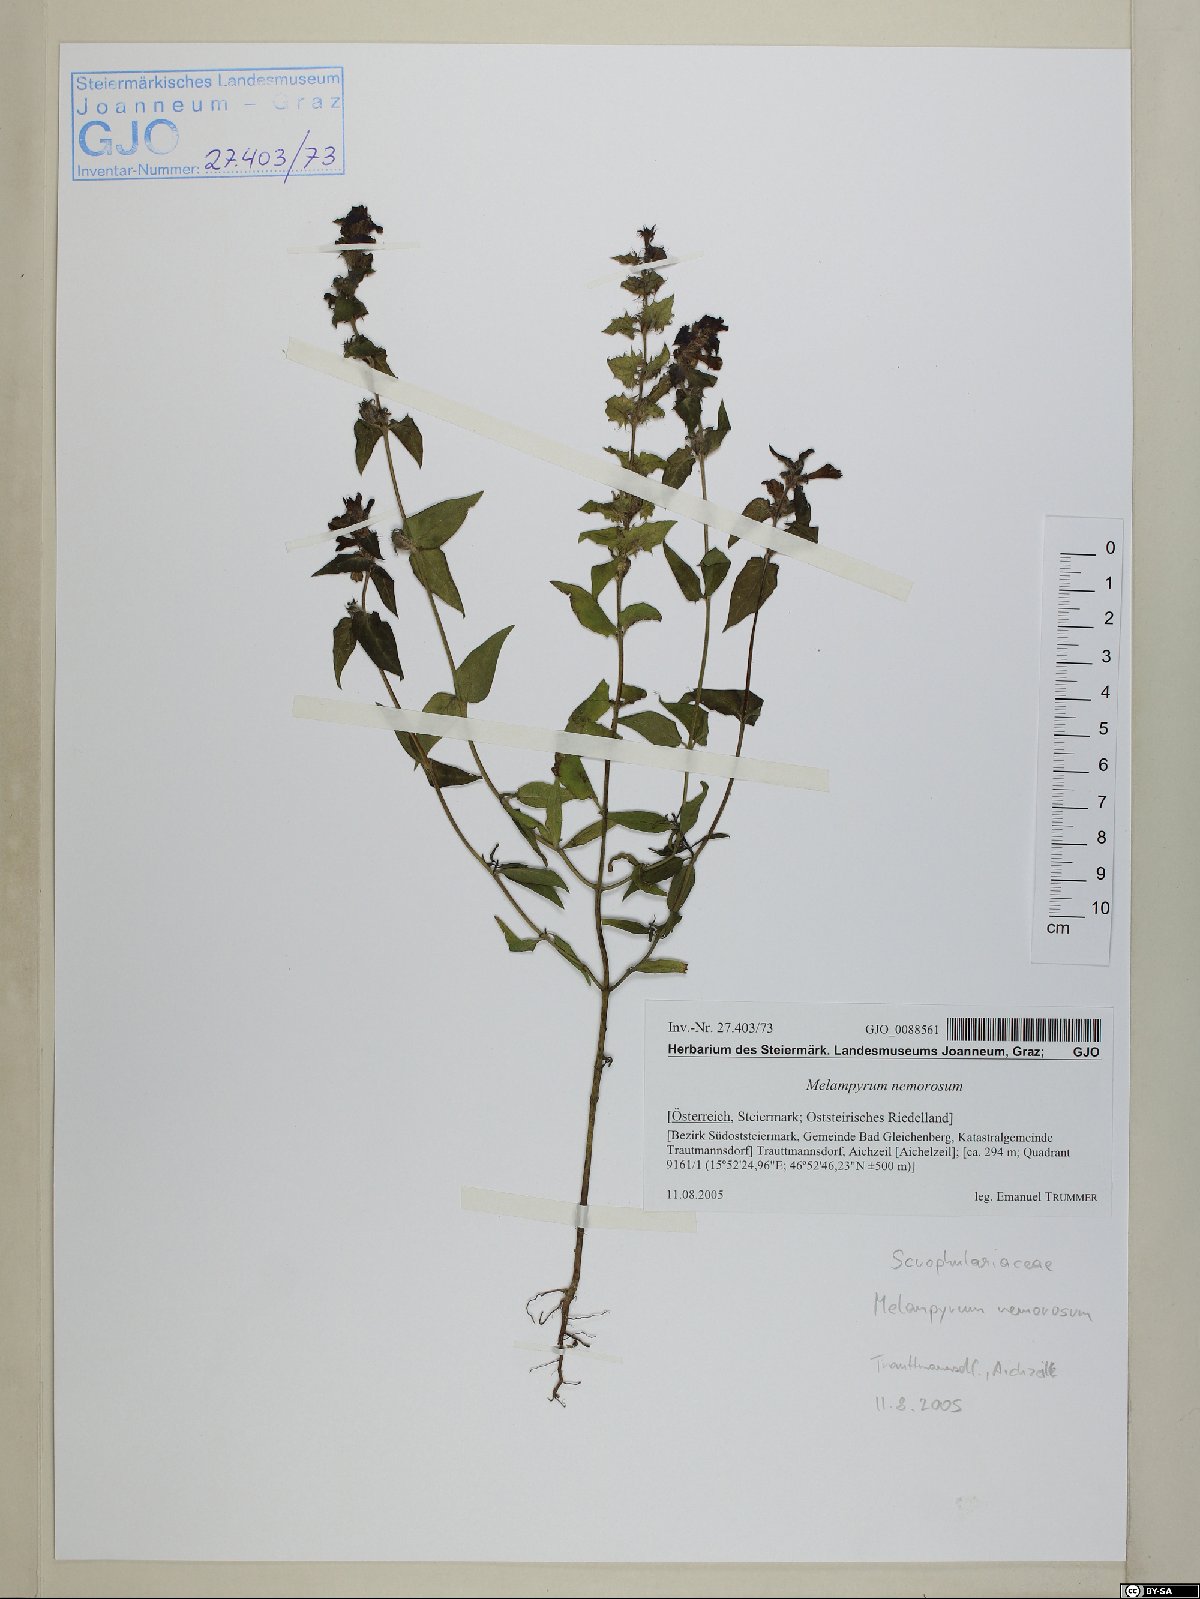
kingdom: Plantae
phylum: Tracheophyta
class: Magnoliopsida
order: Lamiales
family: Orobanchaceae
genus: Melampyrum
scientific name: Melampyrum nemorosum
